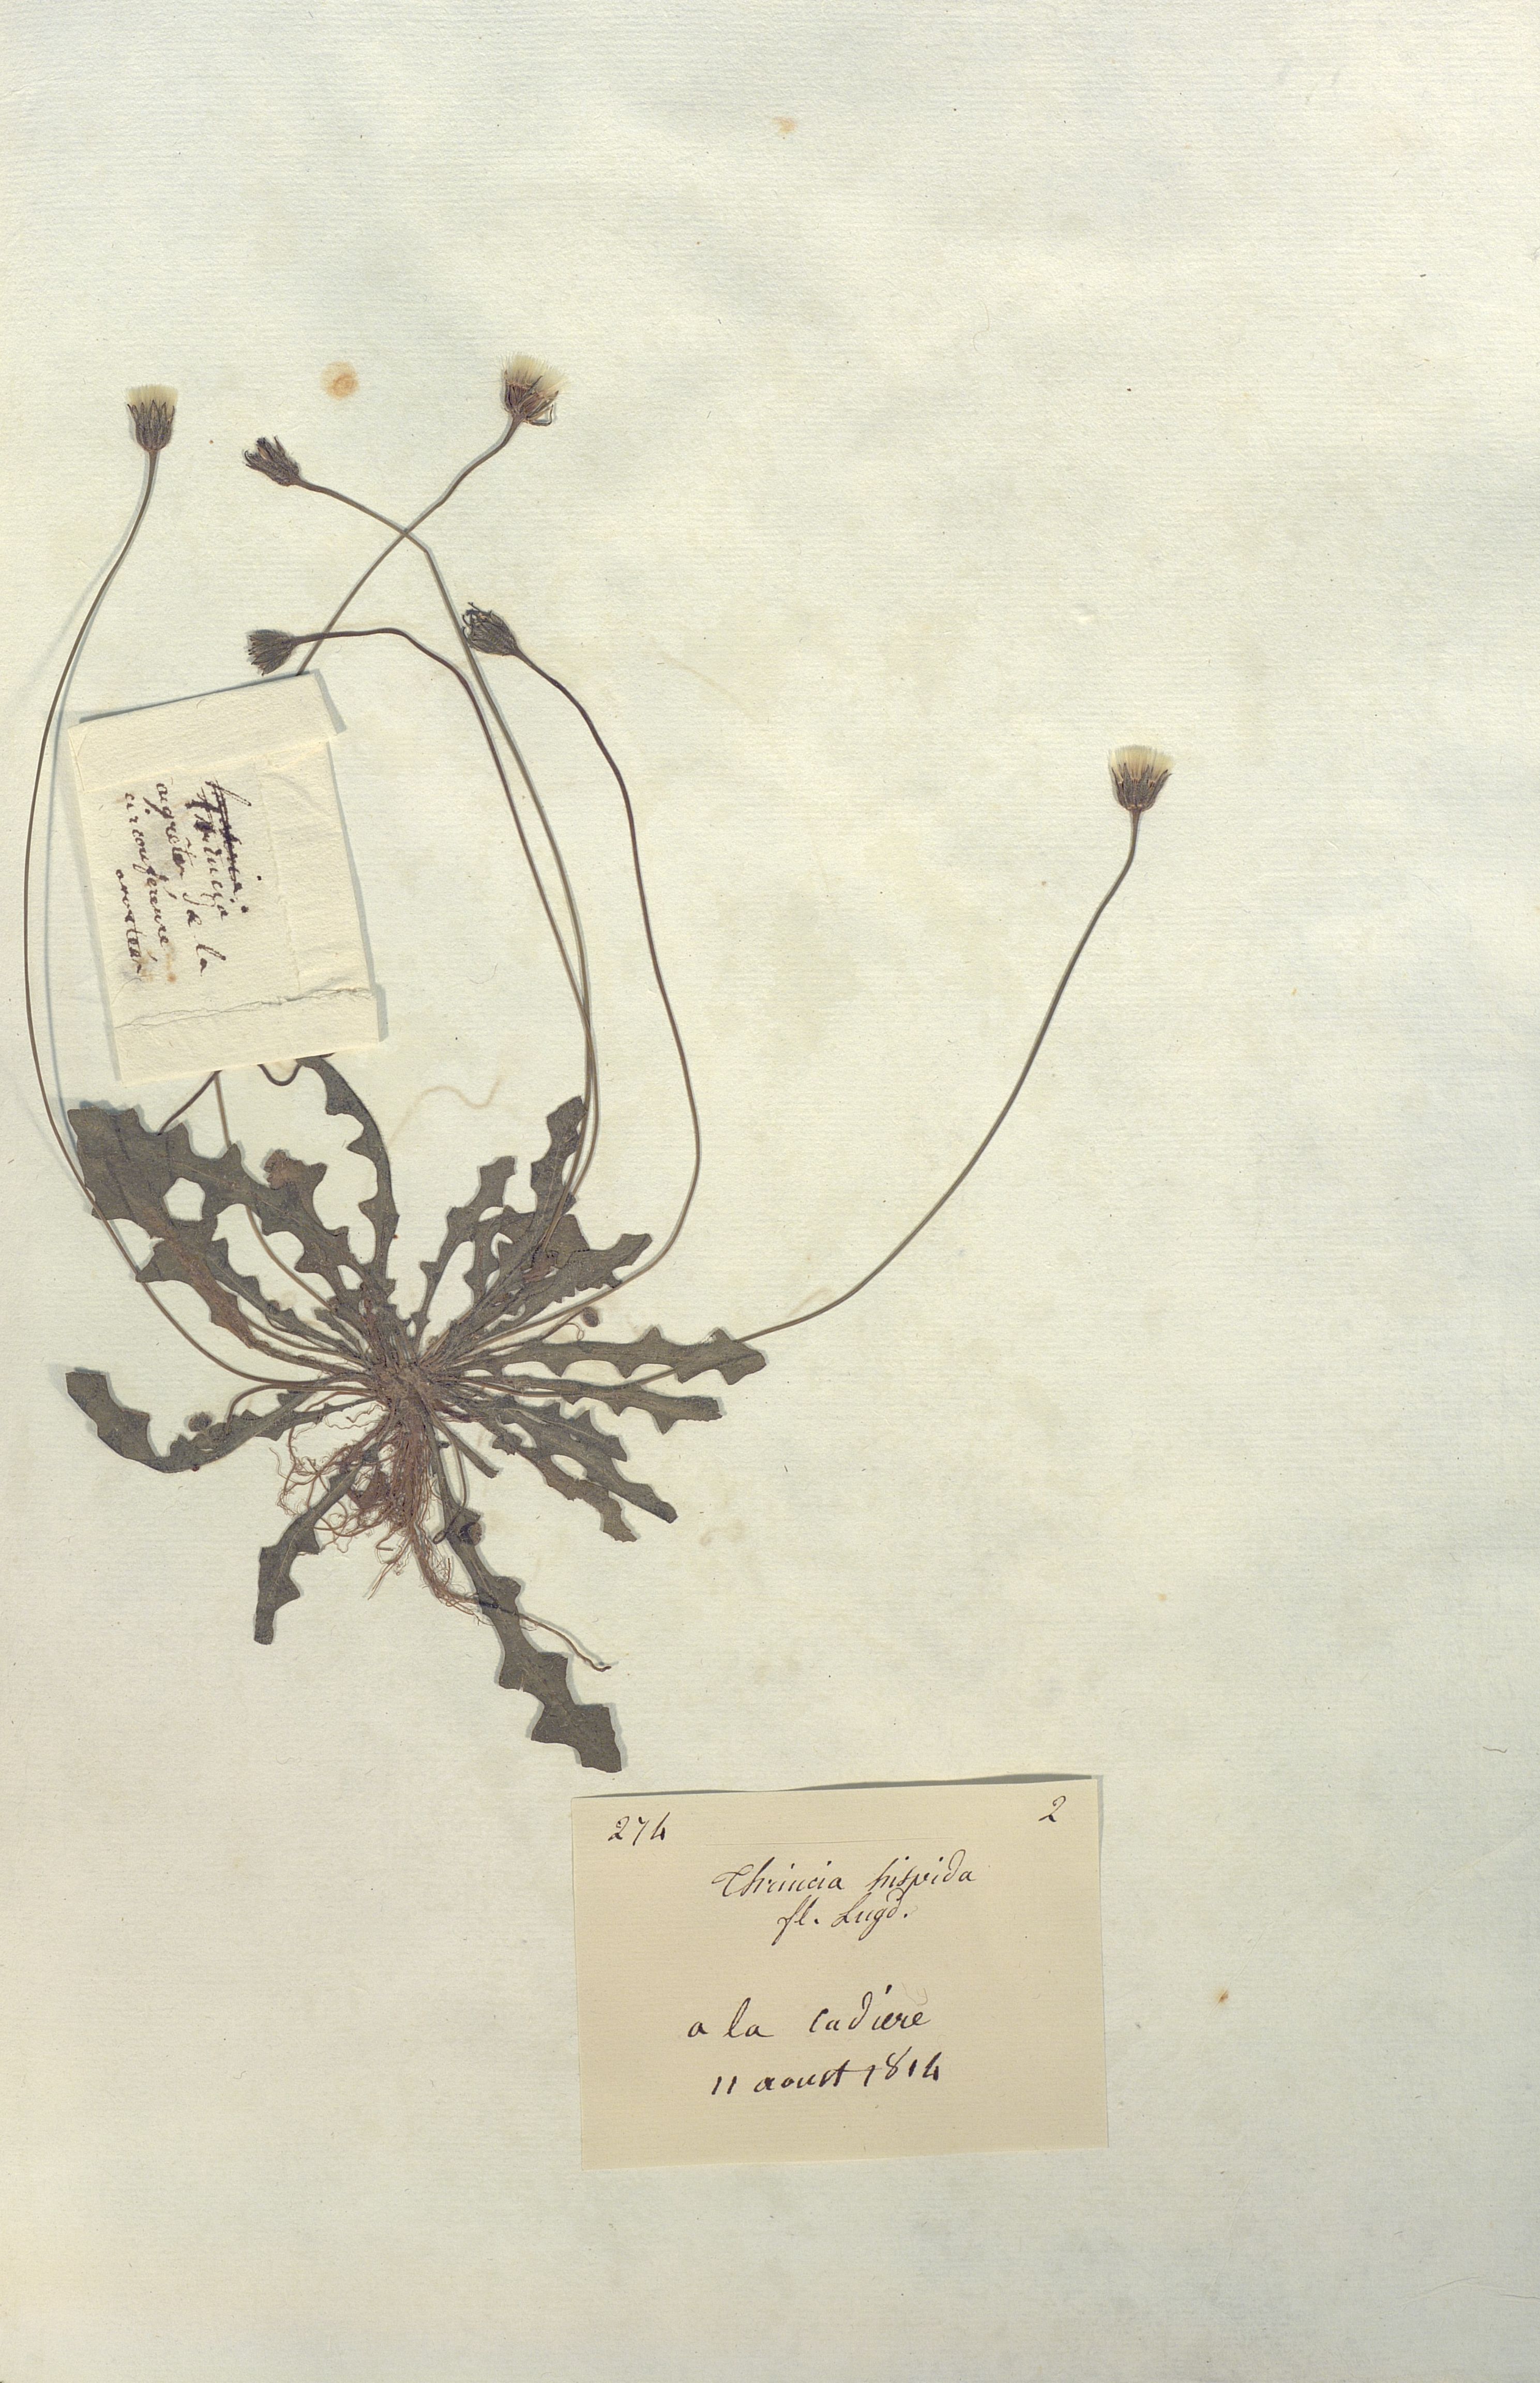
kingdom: Plantae
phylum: Tracheophyta
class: Magnoliopsida
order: Asterales
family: Asteraceae
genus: Thrincia
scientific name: Thrincia hispida
